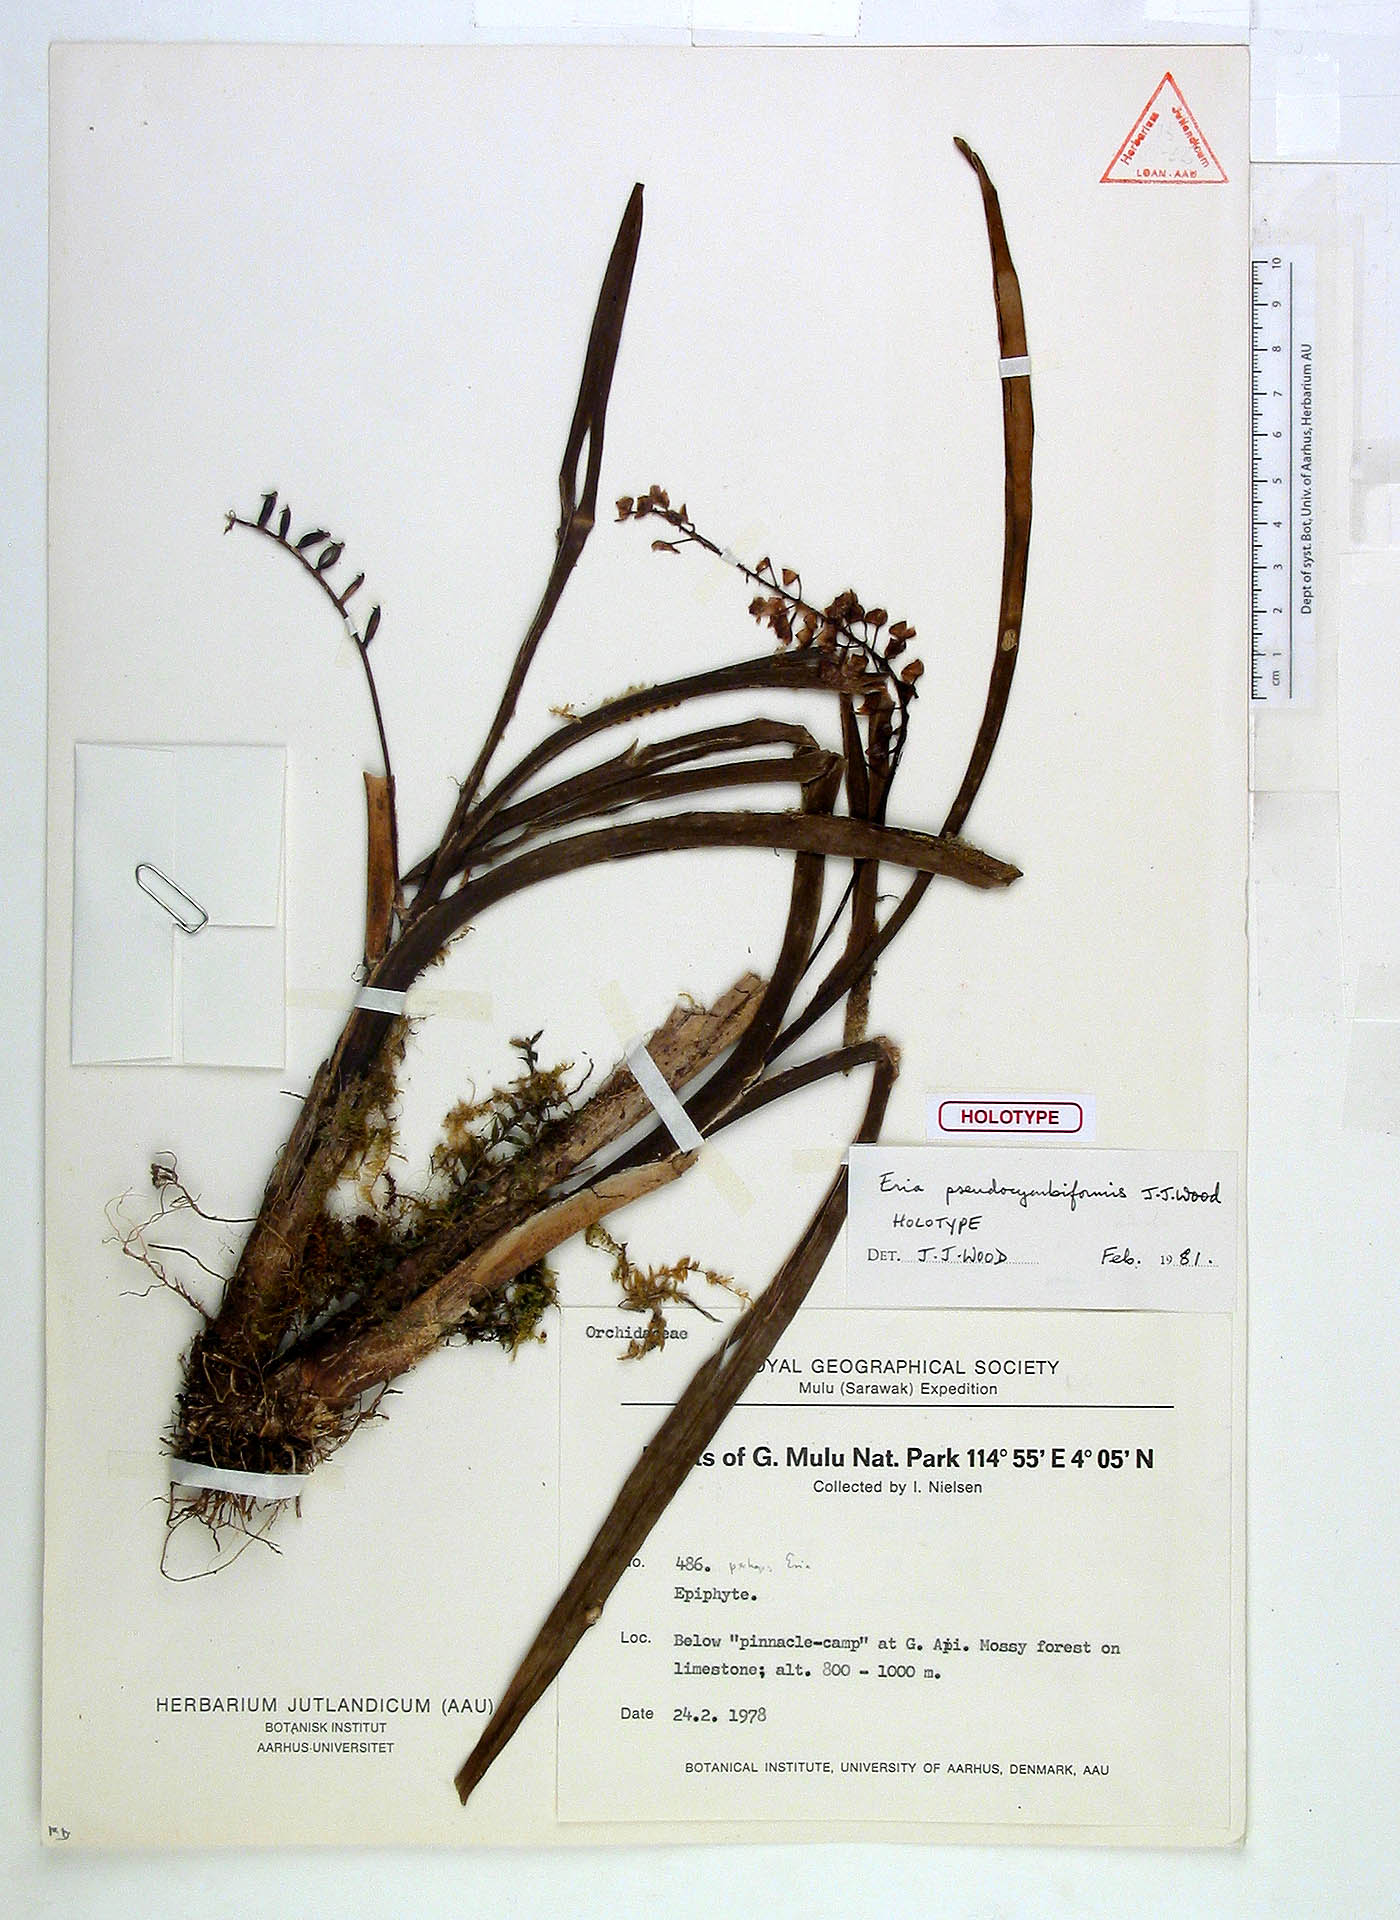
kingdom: Plantae
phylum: Tracheophyta
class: Liliopsida
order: Asparagales
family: Orchidaceae
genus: Cymboglossum
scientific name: Cymboglossum pseudocymbiforme
